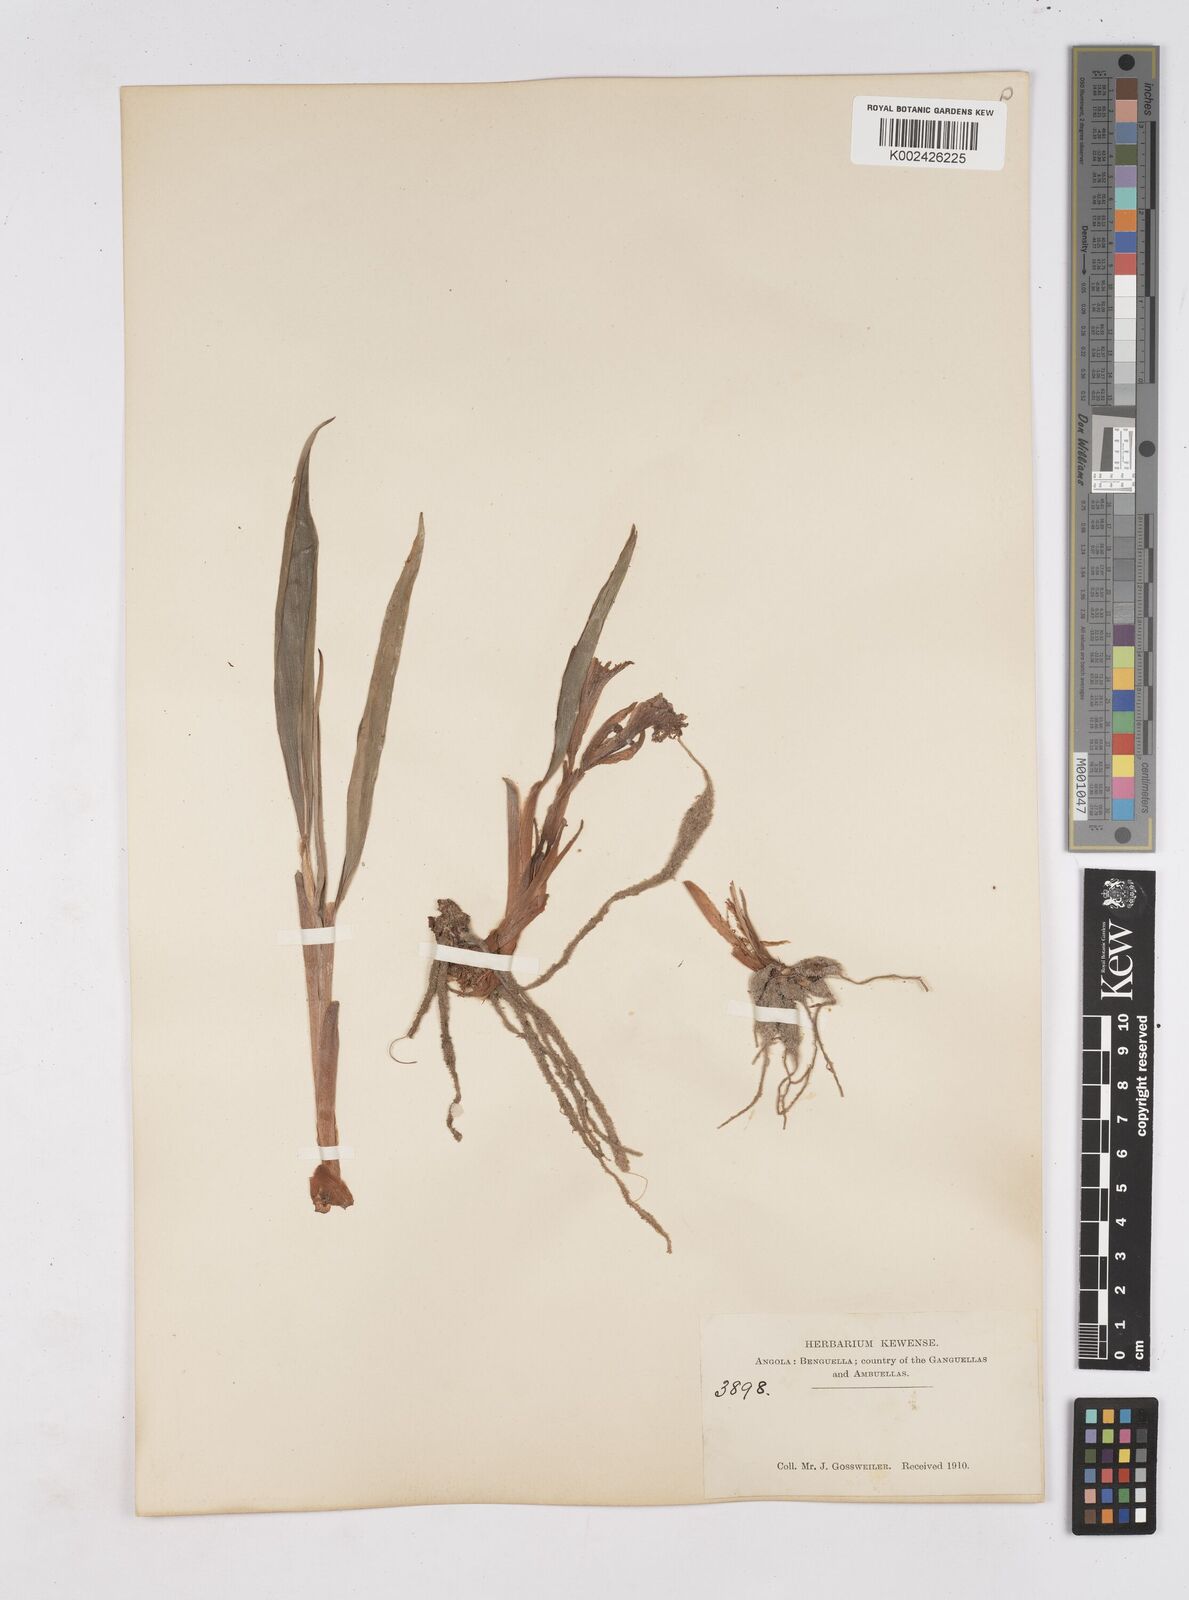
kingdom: Plantae
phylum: Tracheophyta
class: Liliopsida
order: Zingiberales
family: Zingiberaceae
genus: Siphonochilus
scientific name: Siphonochilus
